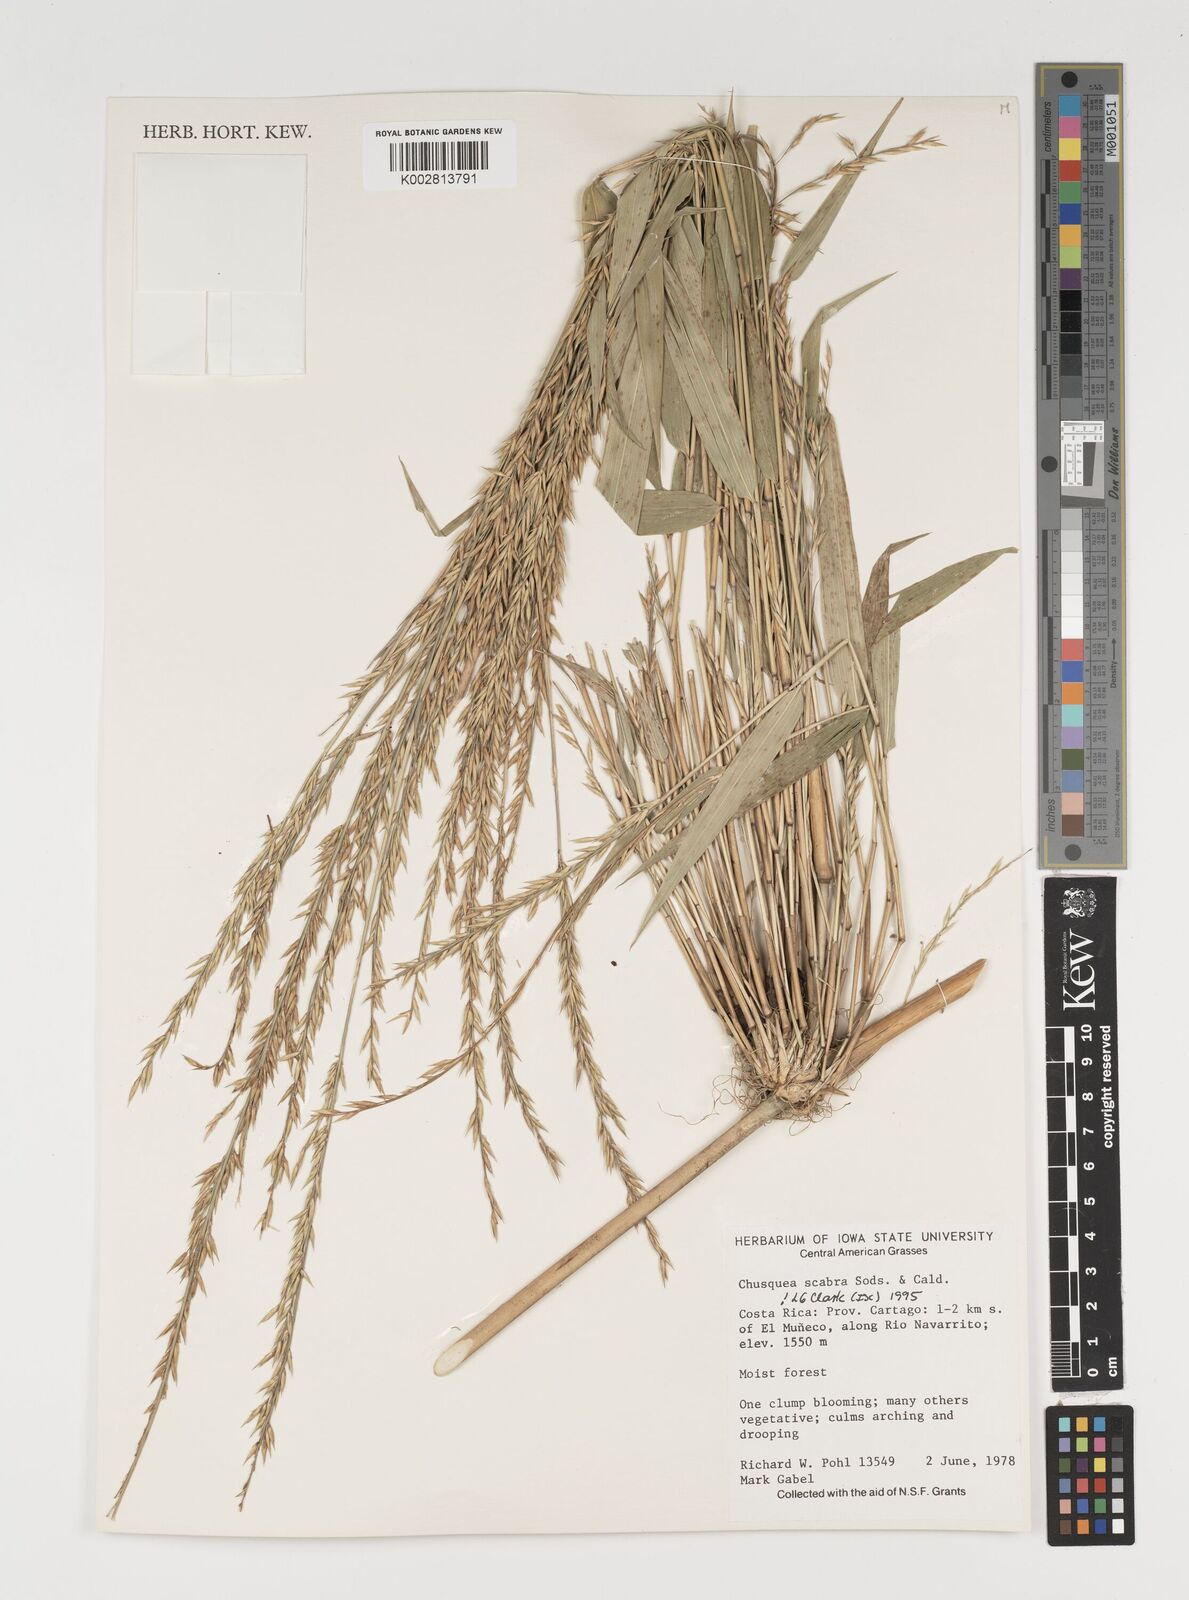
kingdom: Plantae
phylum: Tracheophyta
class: Liliopsida
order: Poales
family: Poaceae
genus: Chusquea
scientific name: Chusquea scabra
